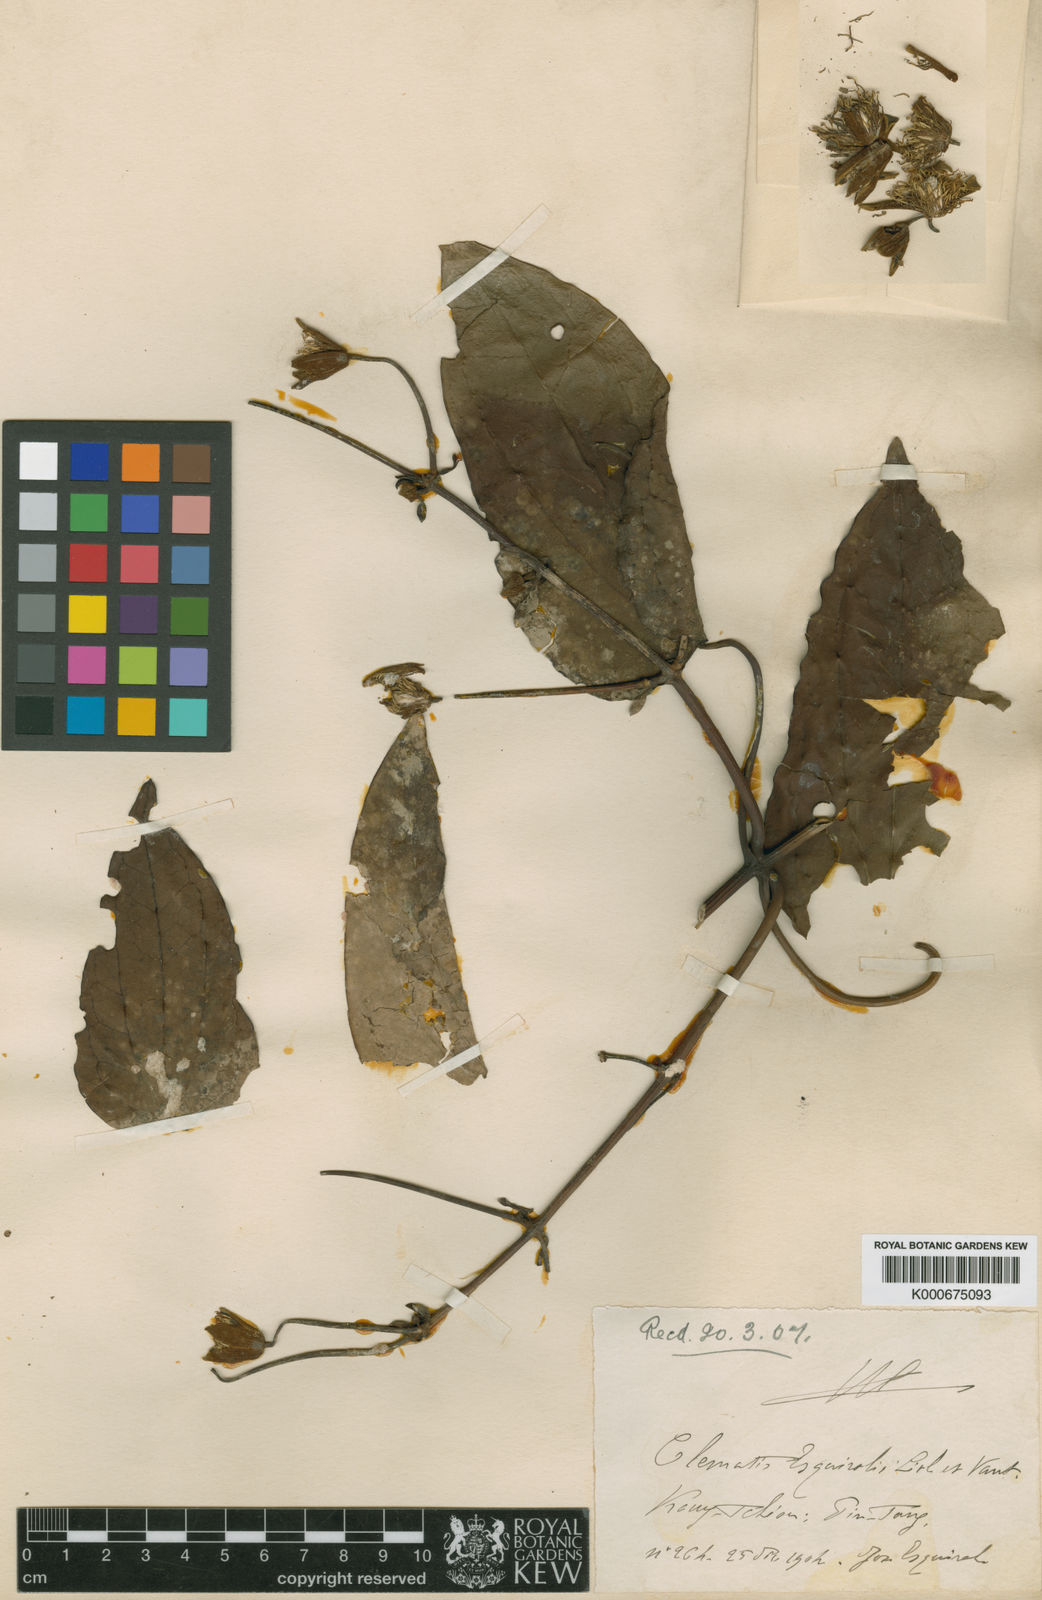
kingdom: Plantae
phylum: Tracheophyta
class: Magnoliopsida
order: Ranunculales
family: Ranunculaceae
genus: Clematis
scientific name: Clematis
